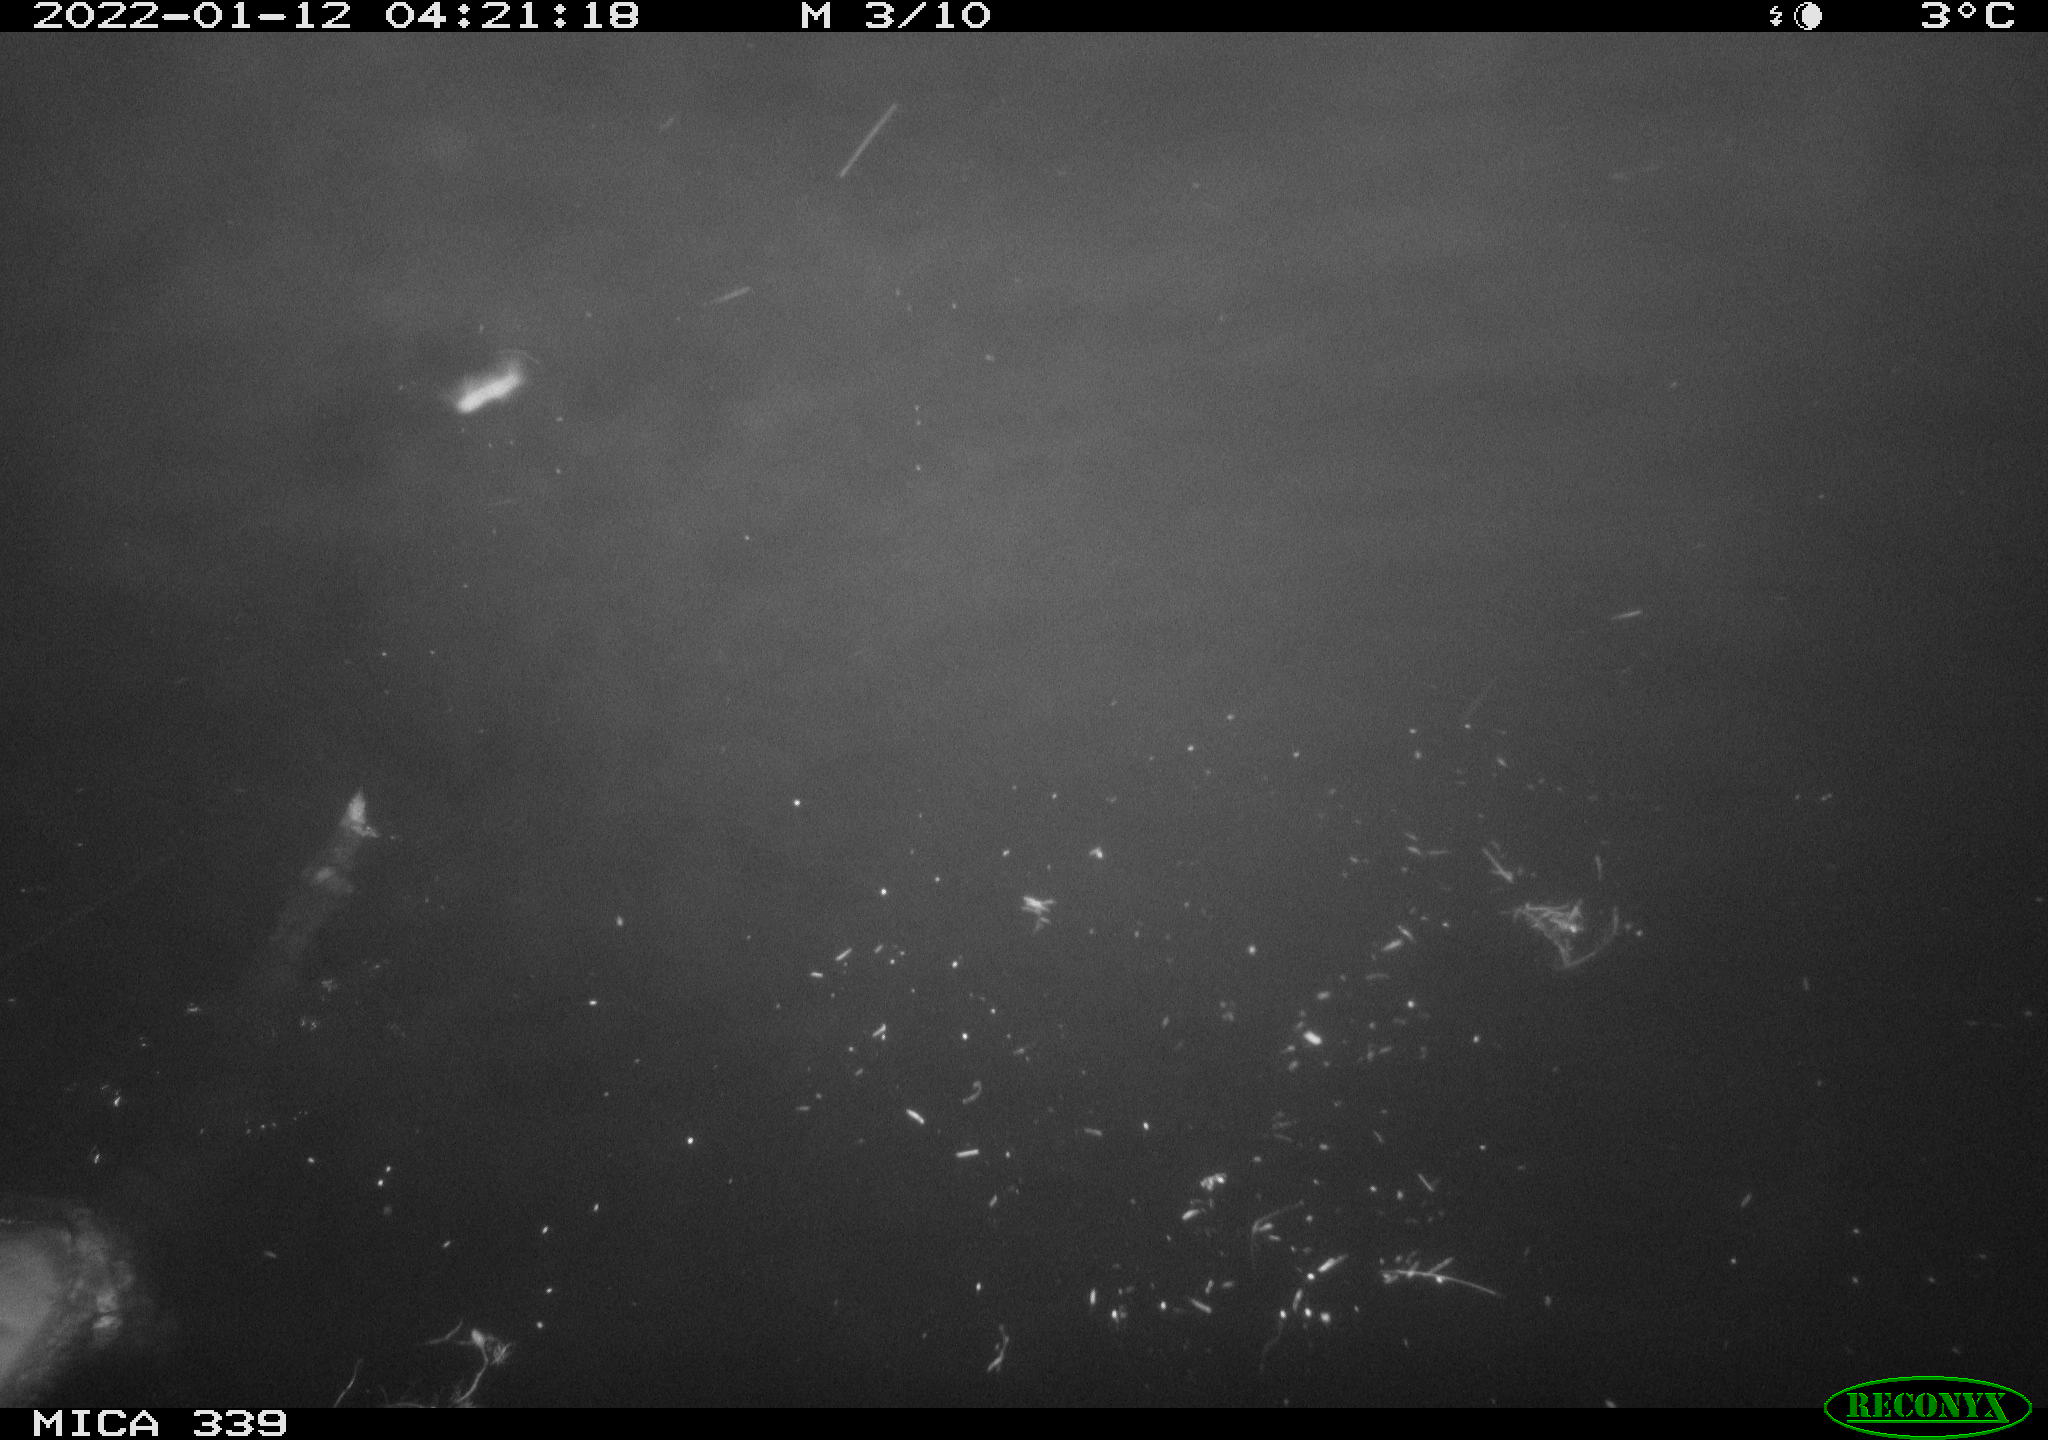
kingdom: Animalia
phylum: Chordata
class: Mammalia
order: Carnivora
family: Mustelidae
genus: Lutra
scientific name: Lutra lutra
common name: European otter
